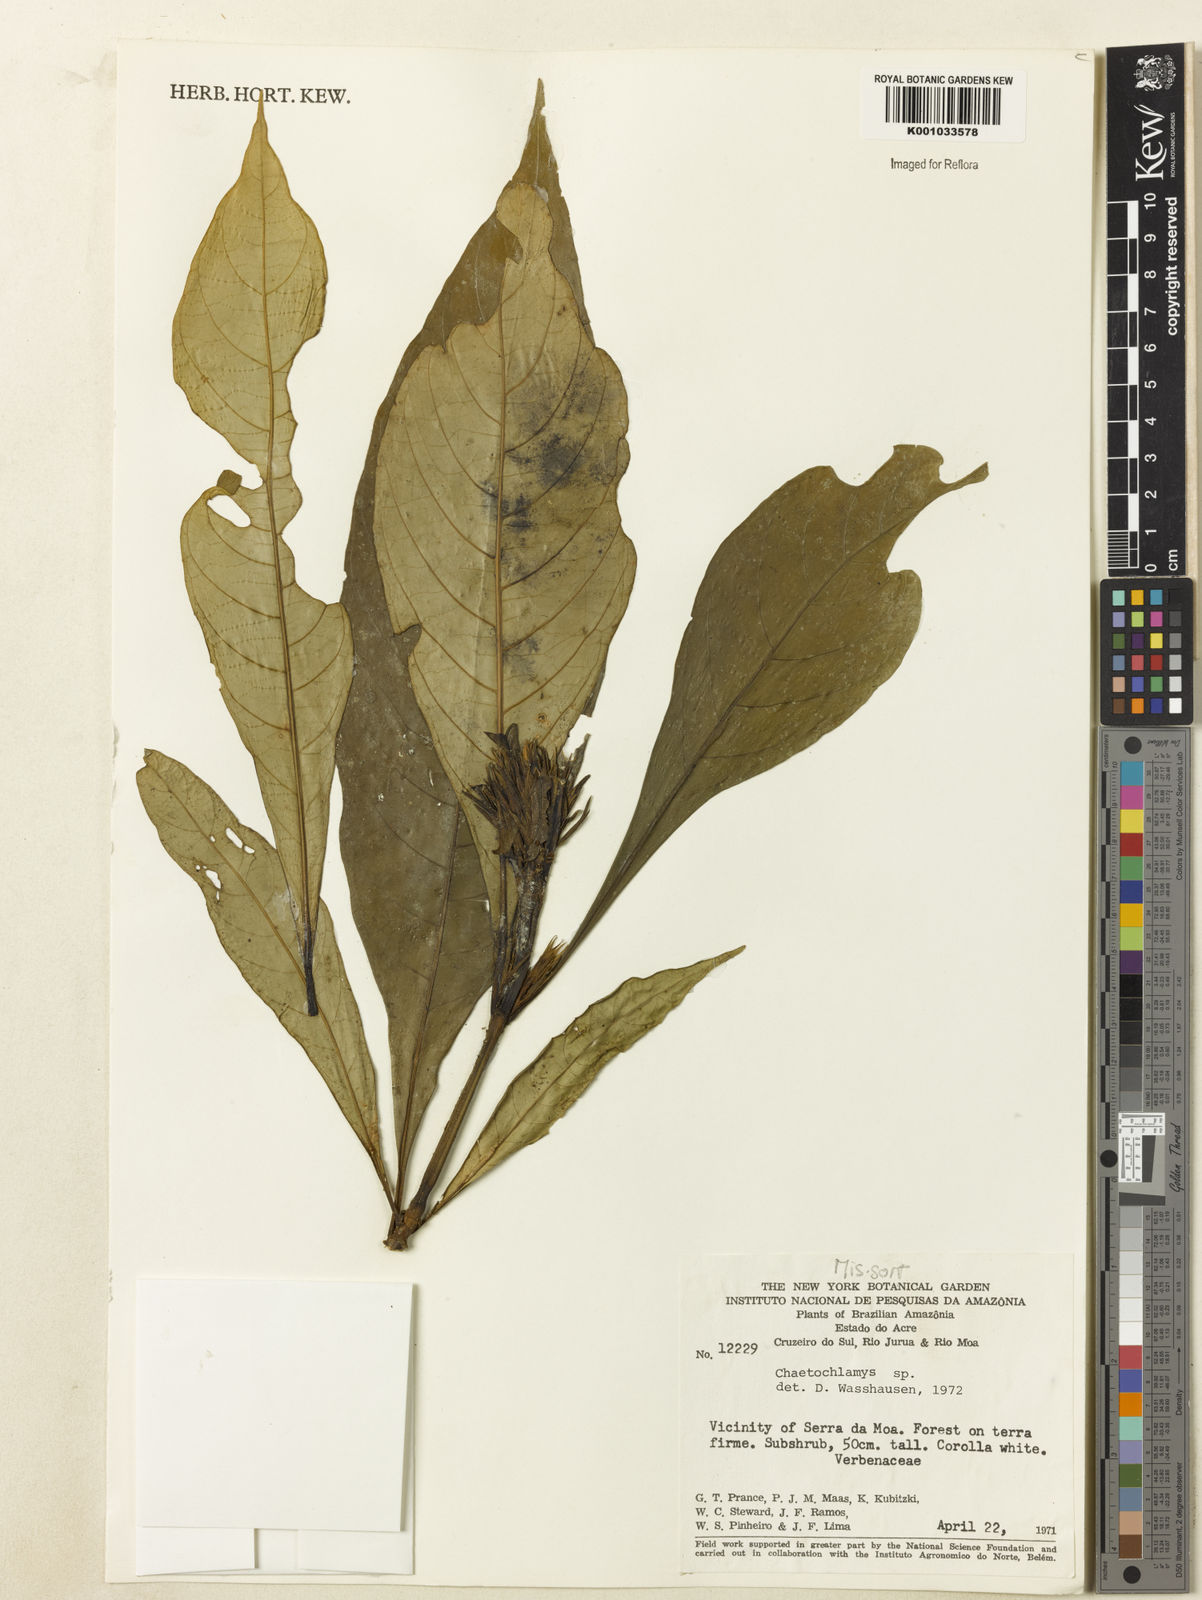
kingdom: Plantae
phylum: Tracheophyta
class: Magnoliopsida
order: Lamiales
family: Acanthaceae
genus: Justicia
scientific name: Justicia
